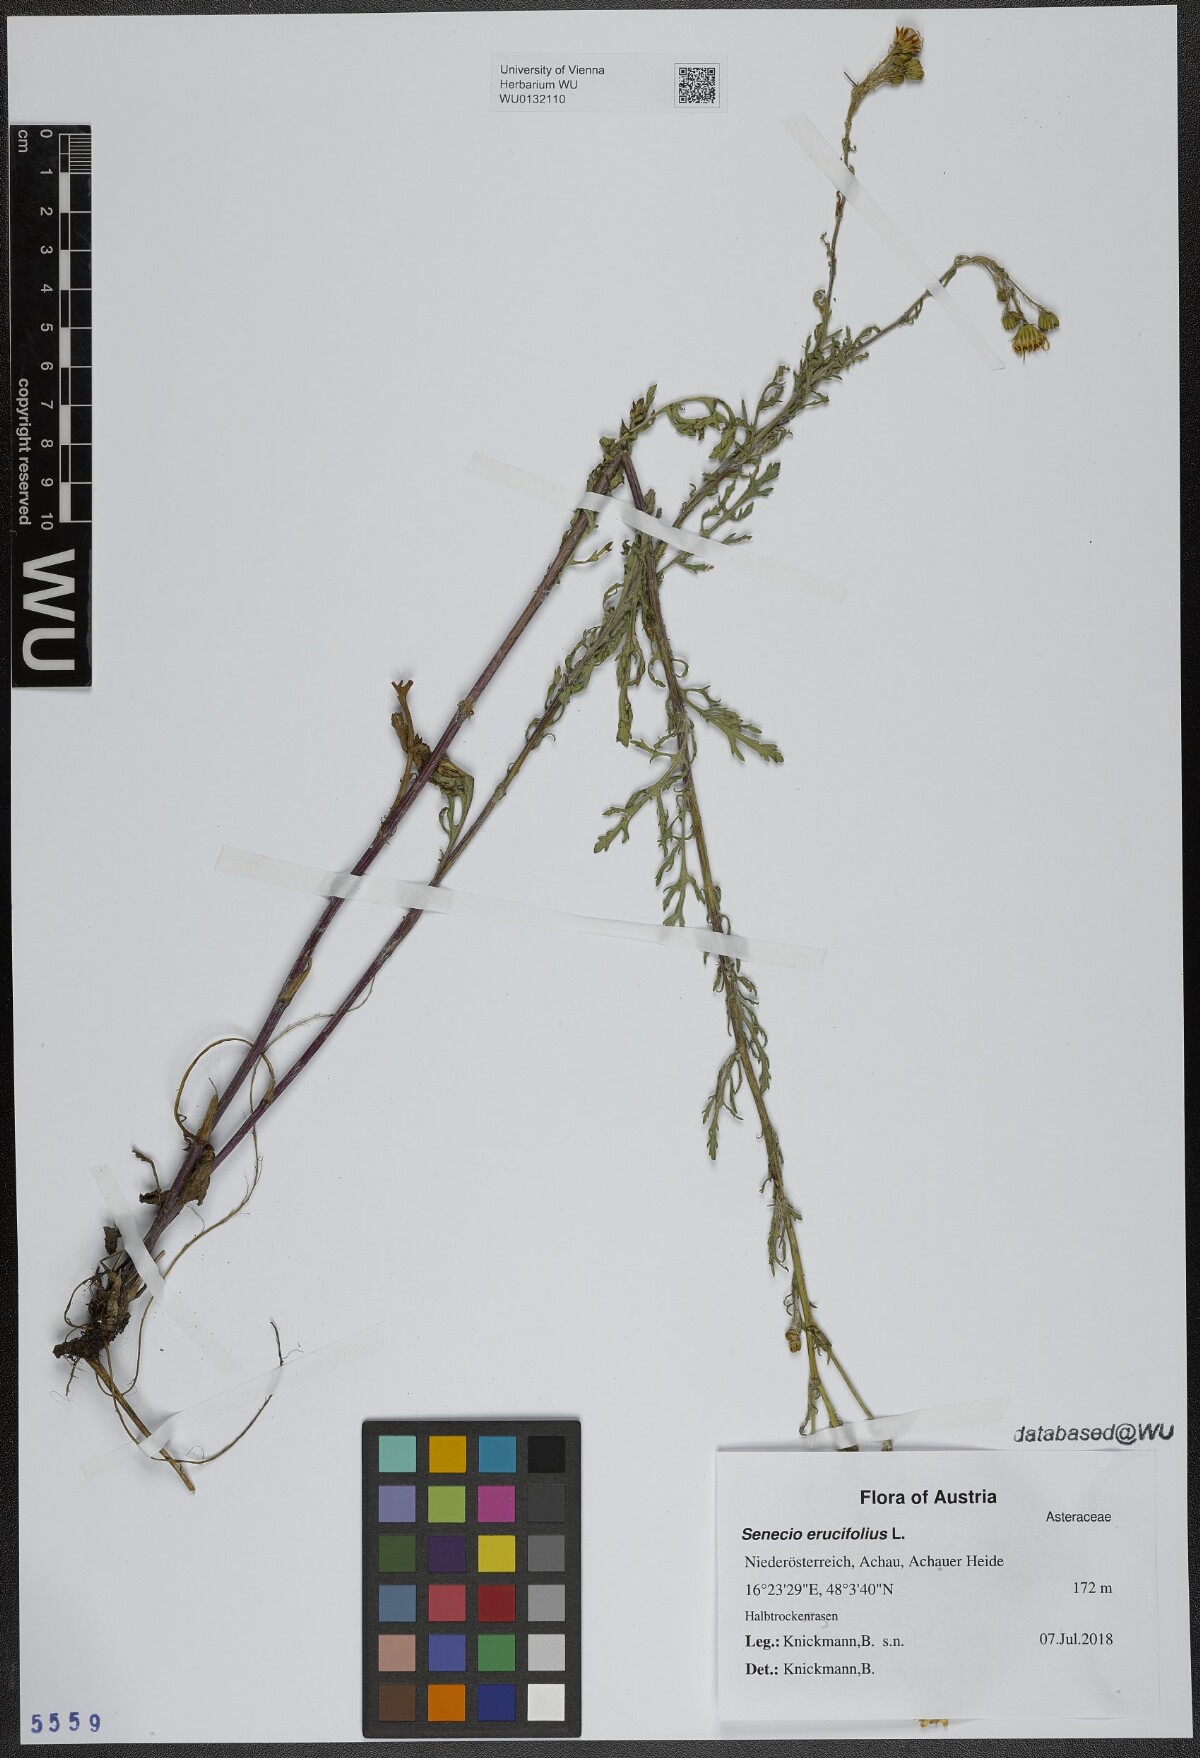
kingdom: Plantae
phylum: Tracheophyta
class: Magnoliopsida
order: Asterales
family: Asteraceae
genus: Jacobaea
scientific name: Jacobaea erucifolia
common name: Hoary ragwort
